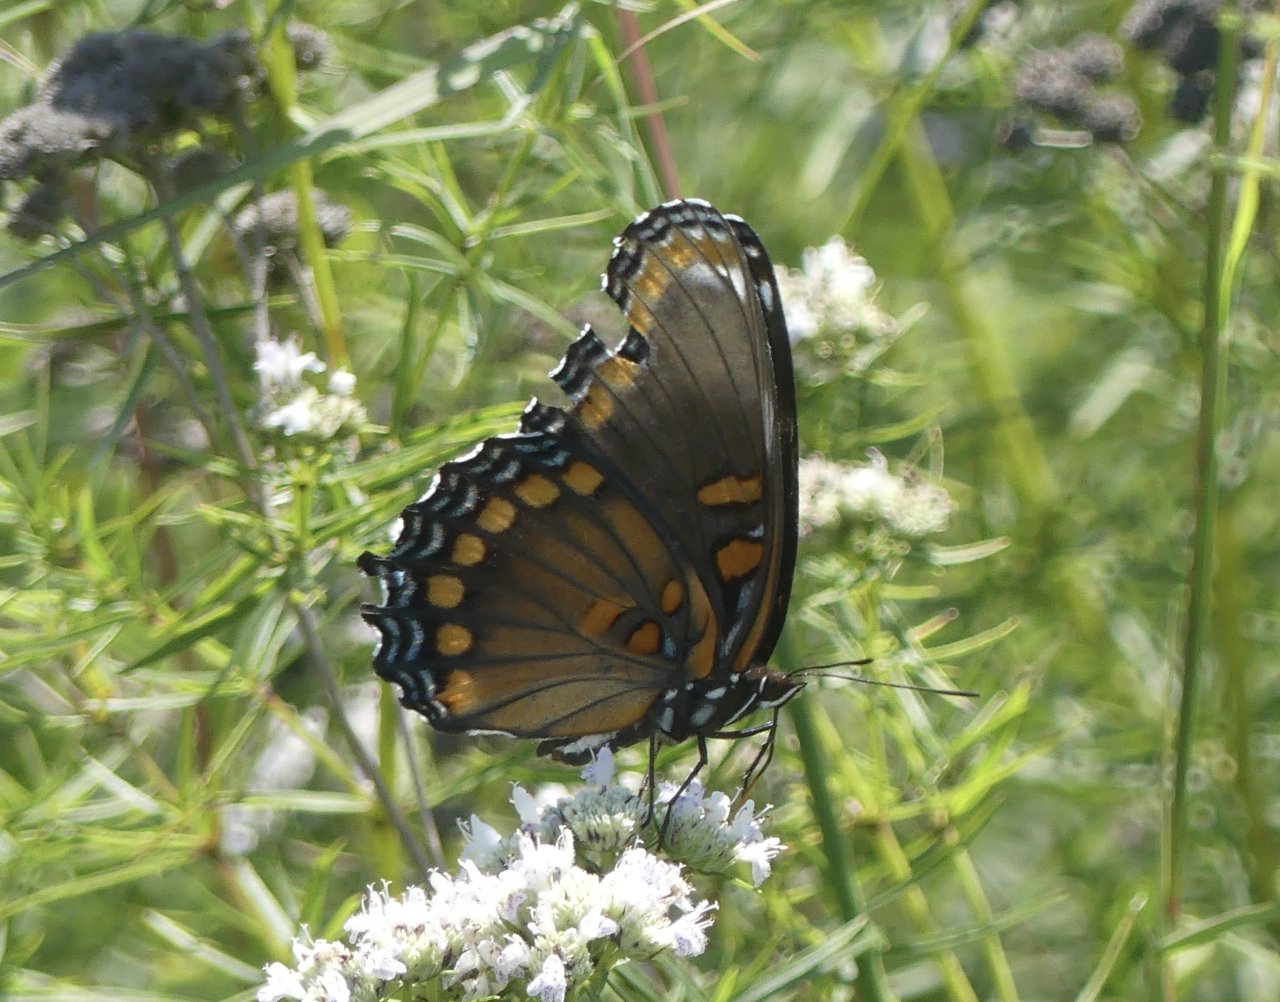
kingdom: Animalia
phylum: Arthropoda
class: Insecta
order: Lepidoptera
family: Nymphalidae
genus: Limenitis
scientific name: Limenitis arthemis
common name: Red-spotted Admiral
